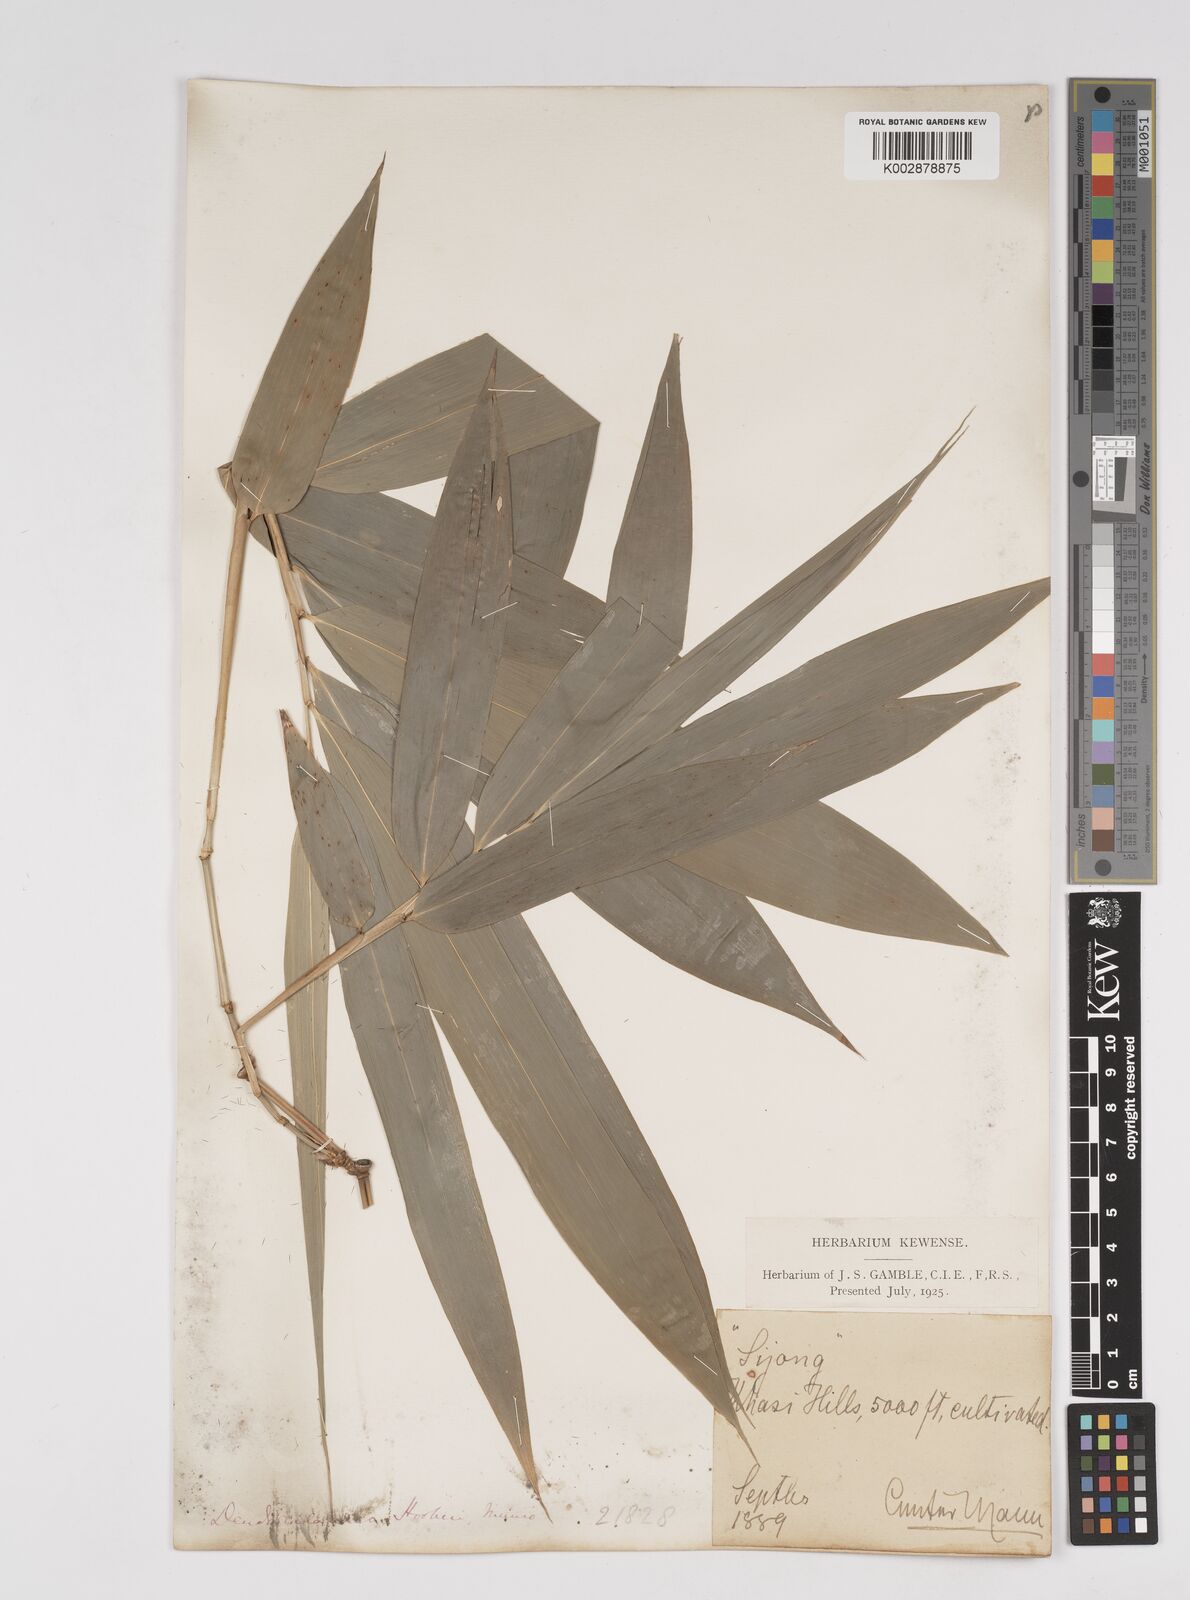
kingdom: Plantae
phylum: Tracheophyta
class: Liliopsida
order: Poales
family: Poaceae
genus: Dendrocalamus
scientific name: Dendrocalamus hookeri
